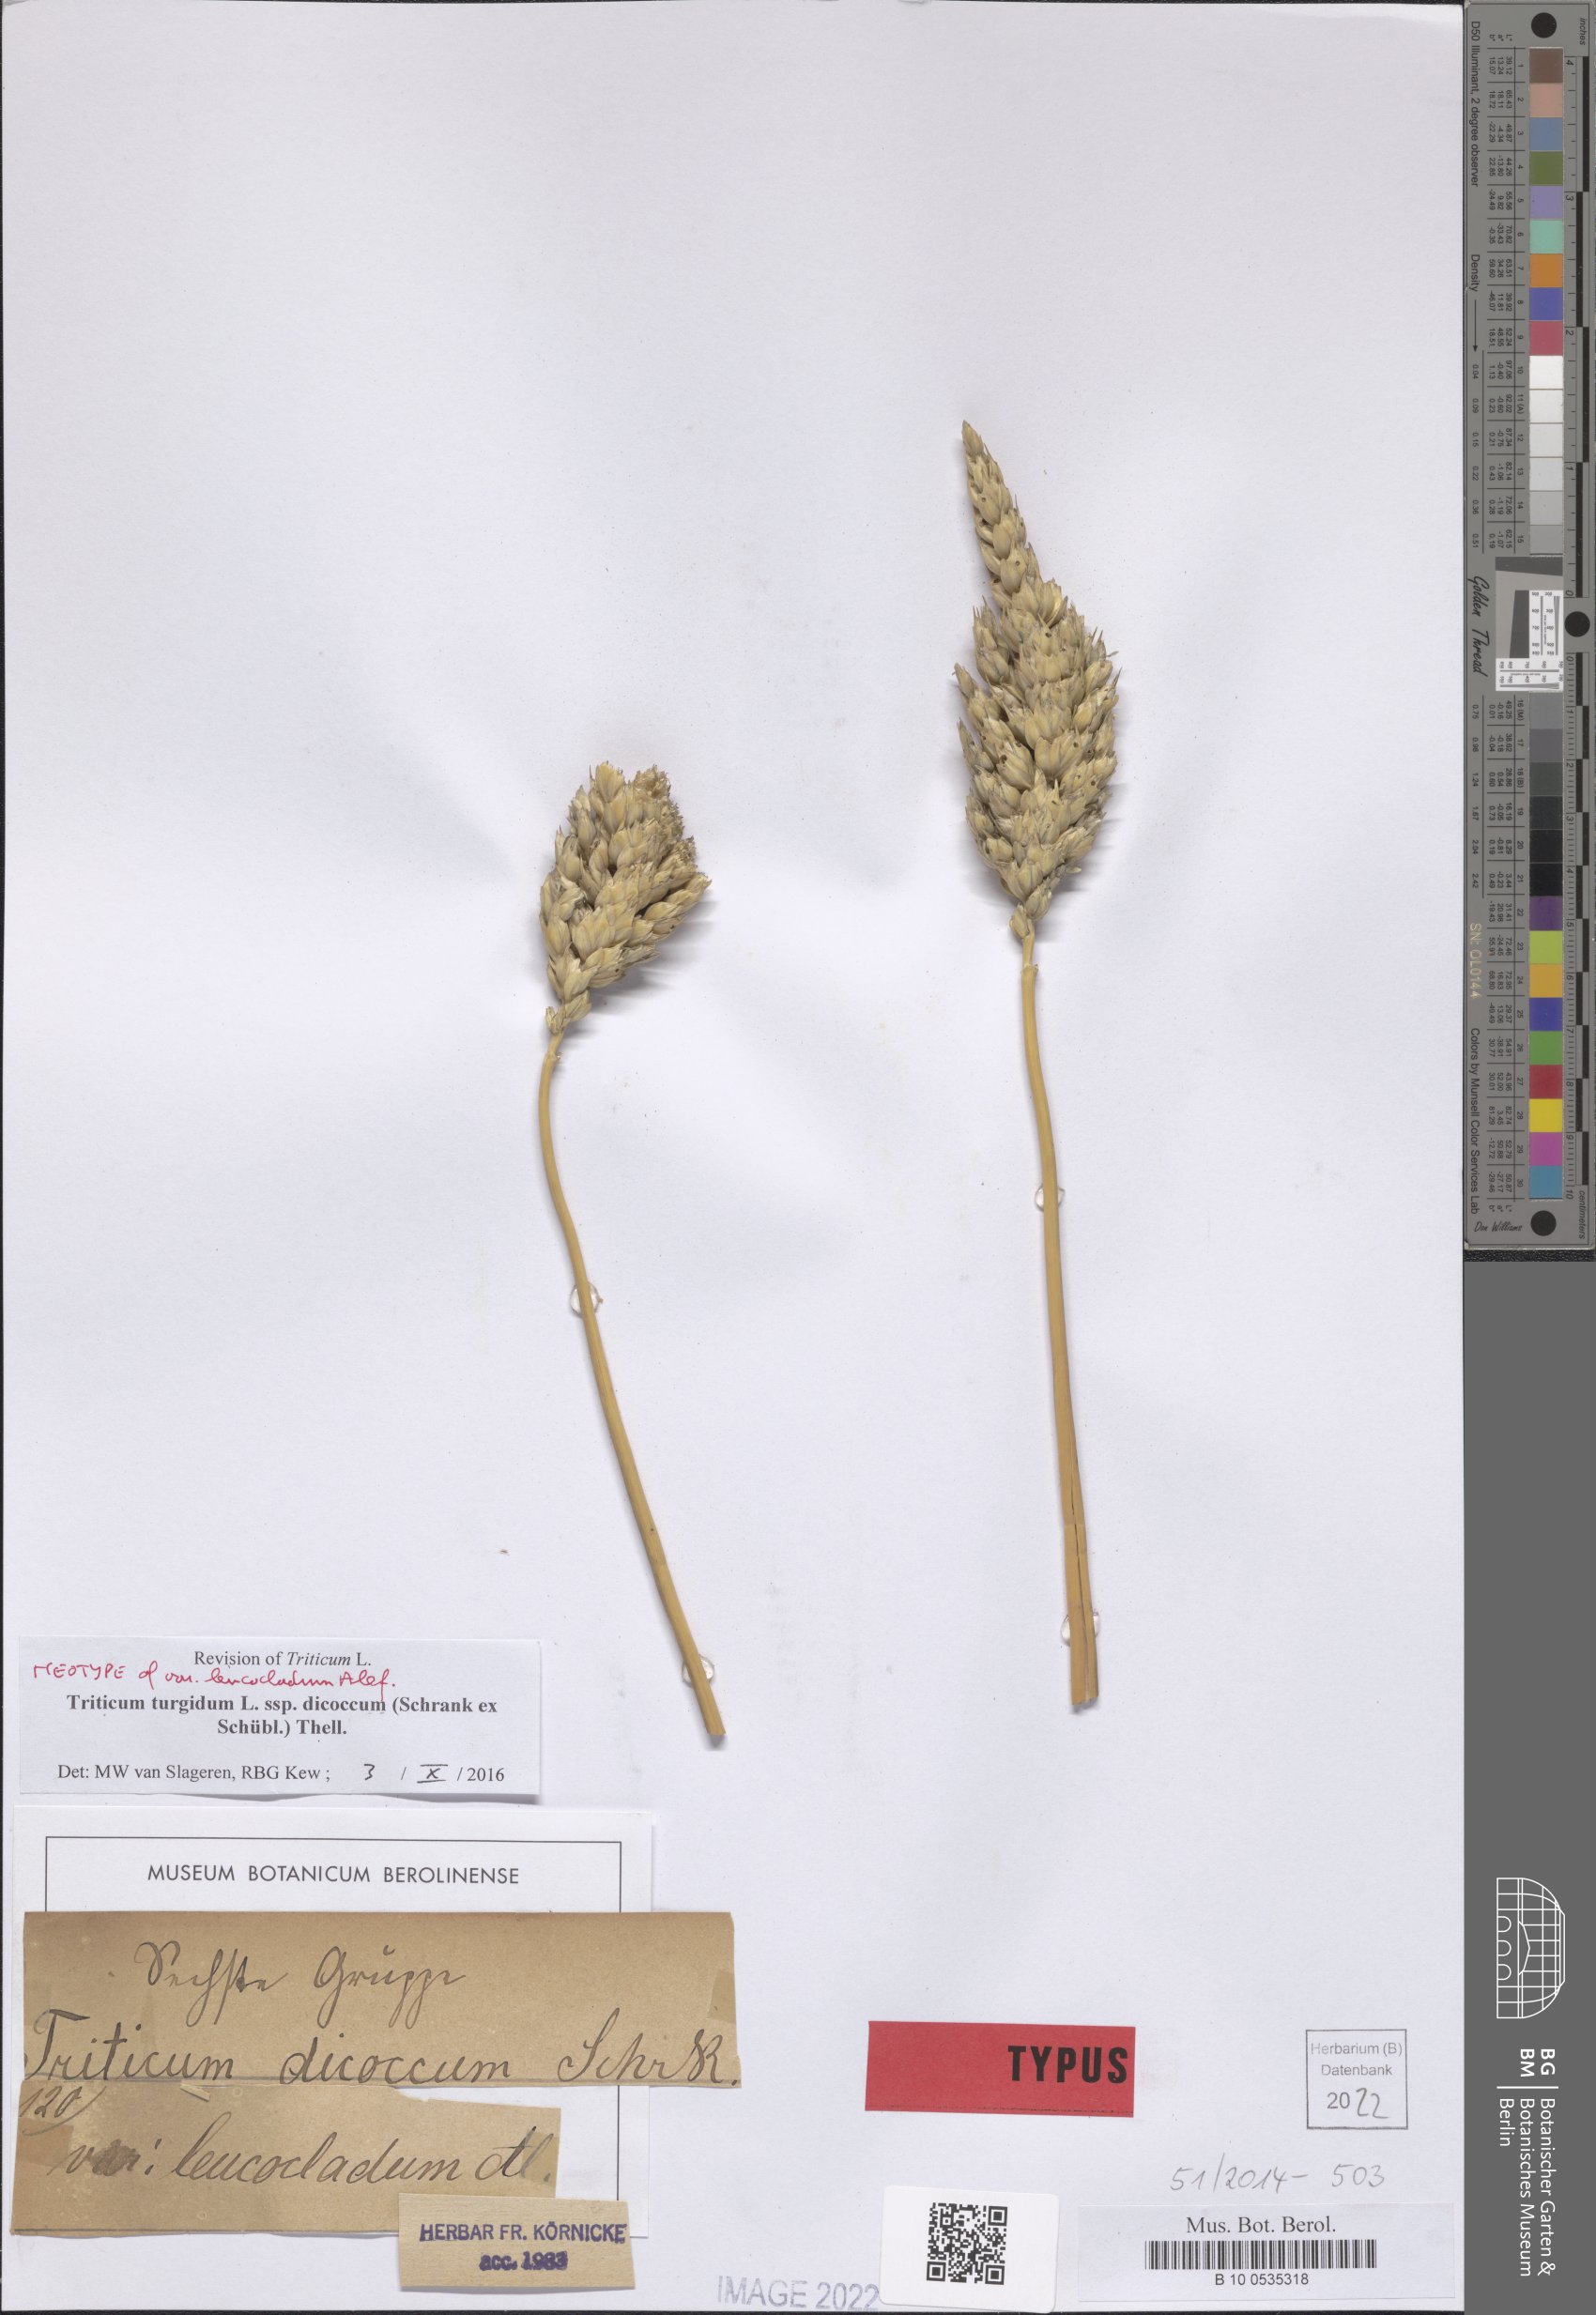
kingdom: Plantae
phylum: Tracheophyta
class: Liliopsida
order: Poales
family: Poaceae
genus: Triticum
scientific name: Triticum turgidum
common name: Rivet wheat
